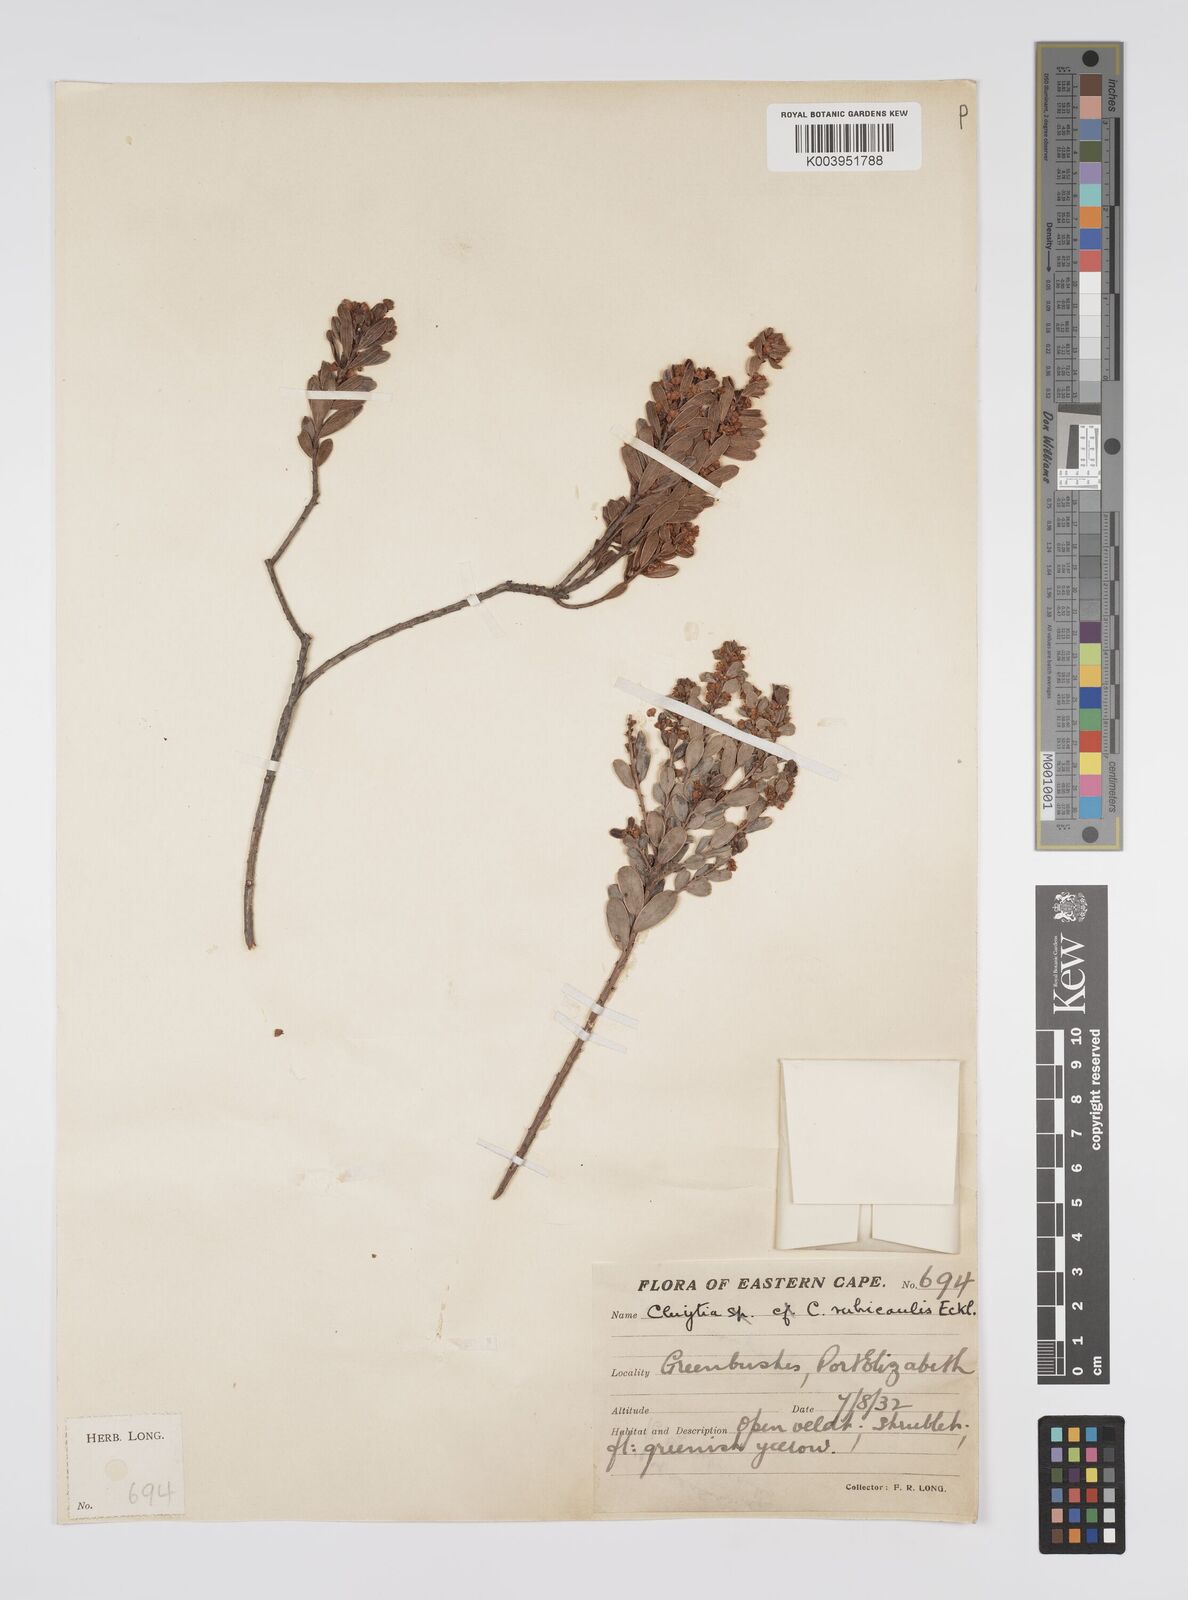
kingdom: Plantae
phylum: Tracheophyta
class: Magnoliopsida
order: Malpighiales
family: Peraceae
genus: Clutia
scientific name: Clutia rubricaulis
